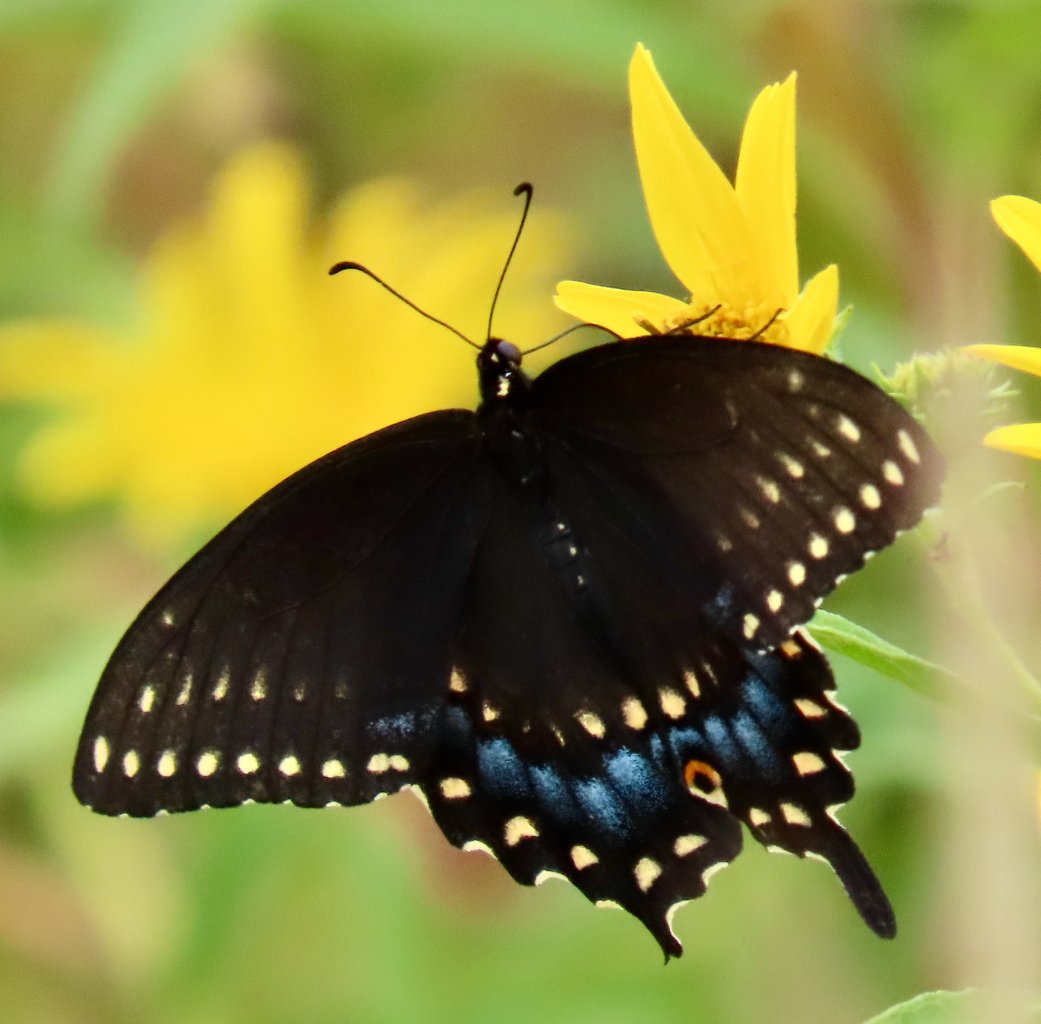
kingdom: Animalia
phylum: Arthropoda
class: Insecta
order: Lepidoptera
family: Papilionidae
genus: Papilio
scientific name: Papilio polyxenes
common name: Black Swallowtail
